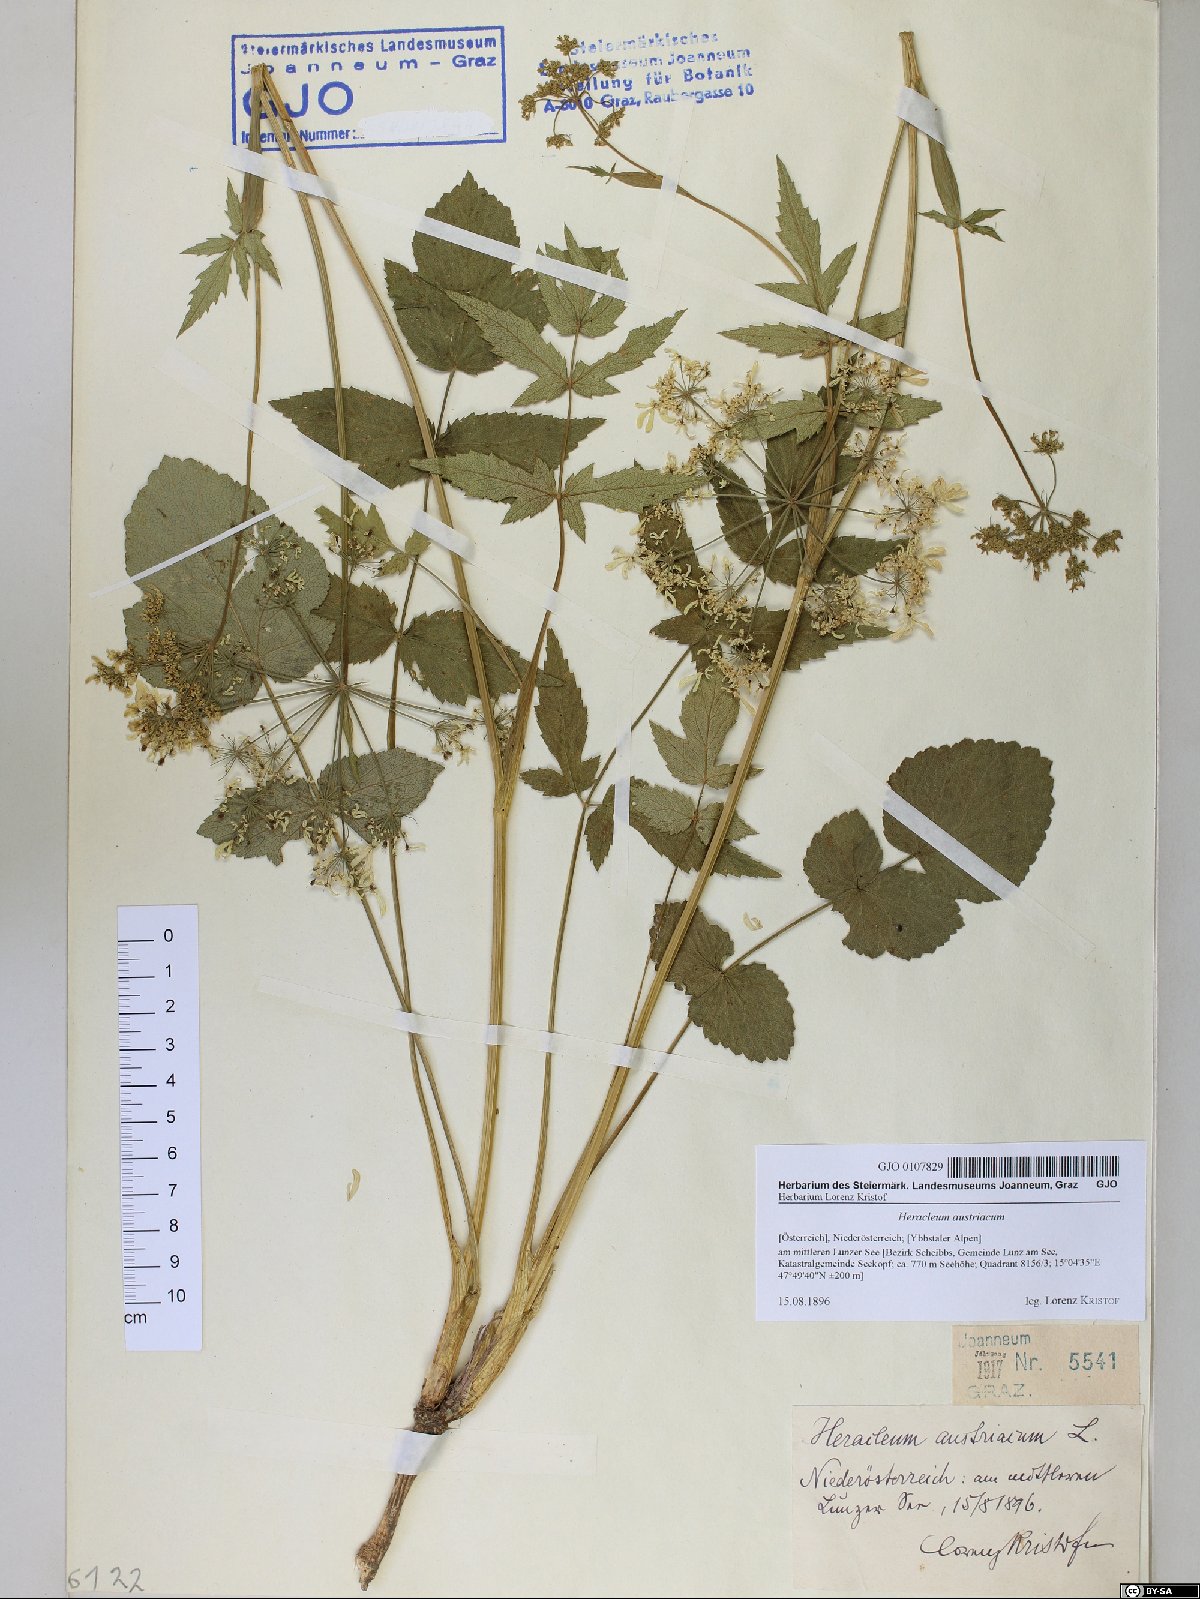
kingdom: Plantae
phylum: Tracheophyta
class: Magnoliopsida
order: Apiales
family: Apiaceae
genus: Heracleum
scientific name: Heracleum austriacum
